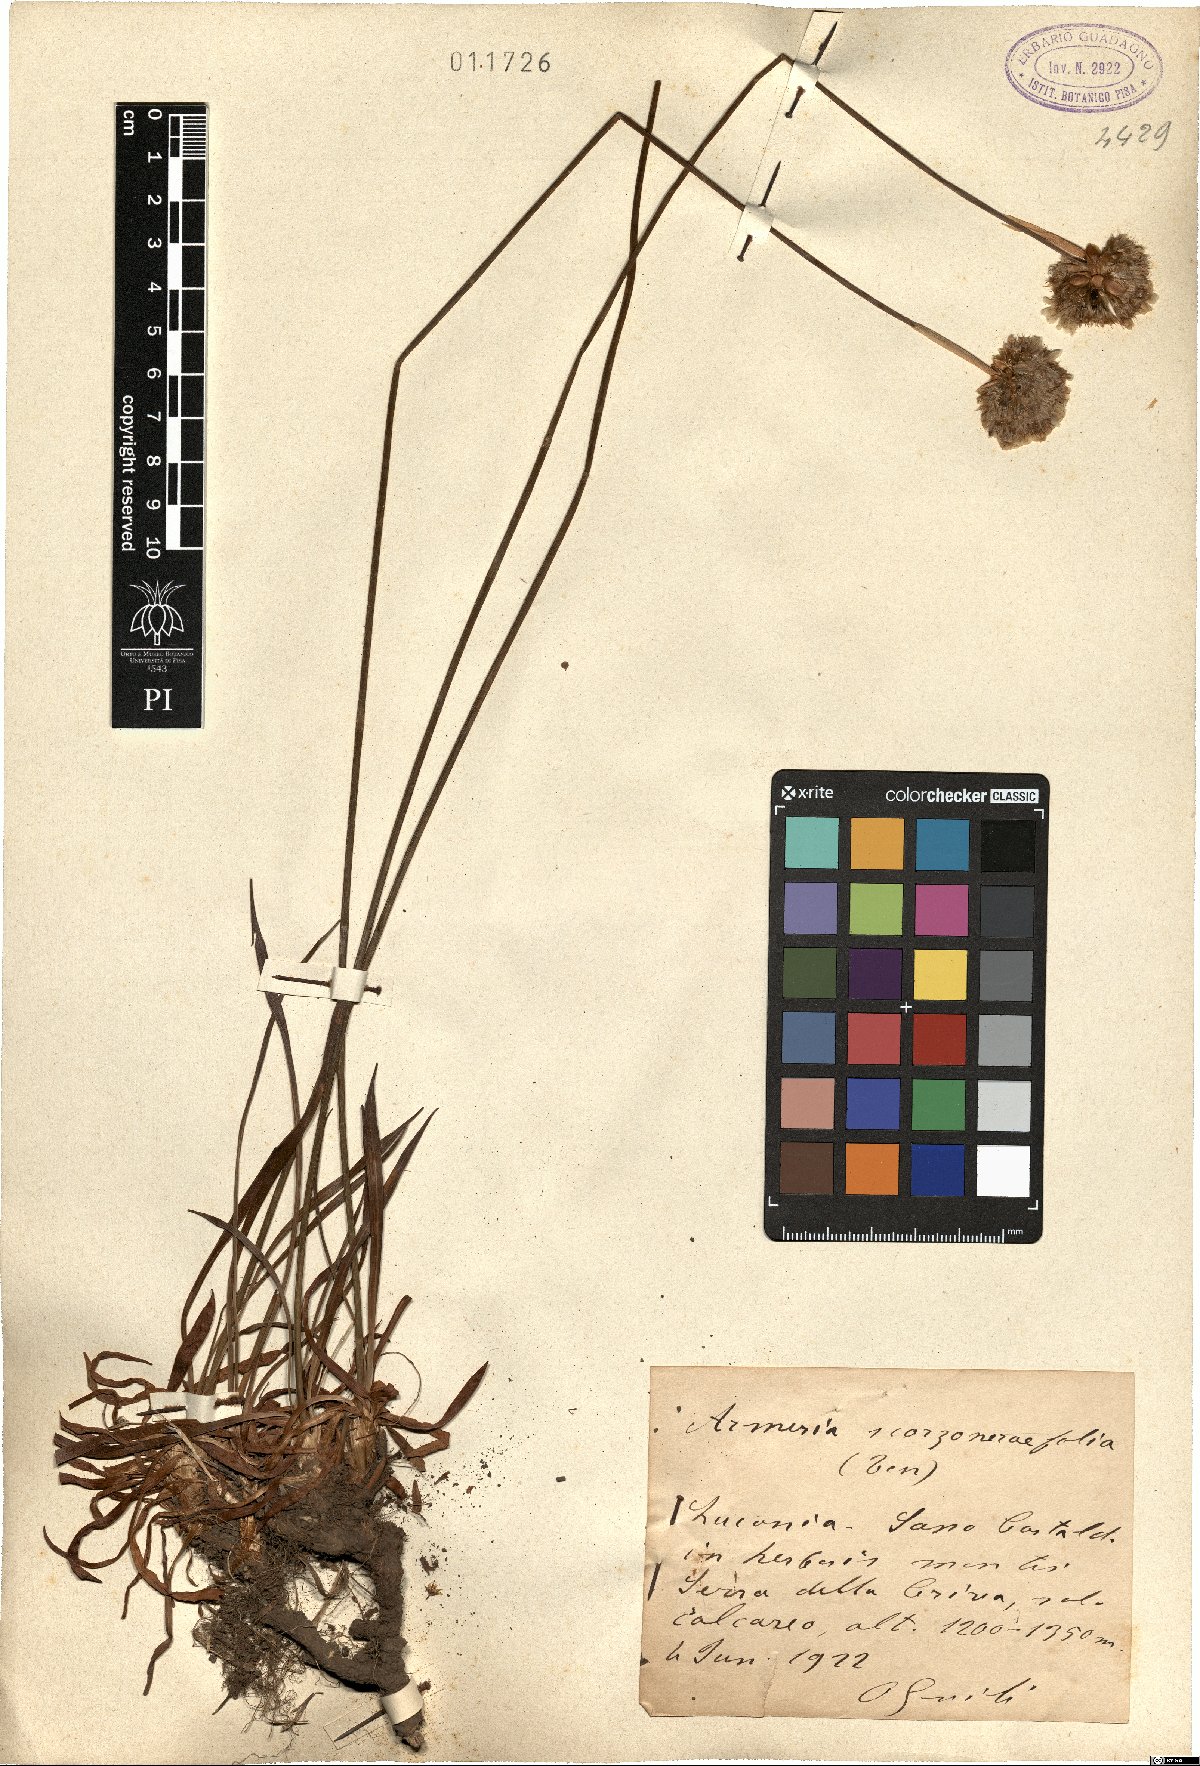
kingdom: Plantae
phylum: Tracheophyta
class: Magnoliopsida
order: Caryophyllales
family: Plumbaginaceae
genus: Armeria
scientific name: Armeria macropoda
